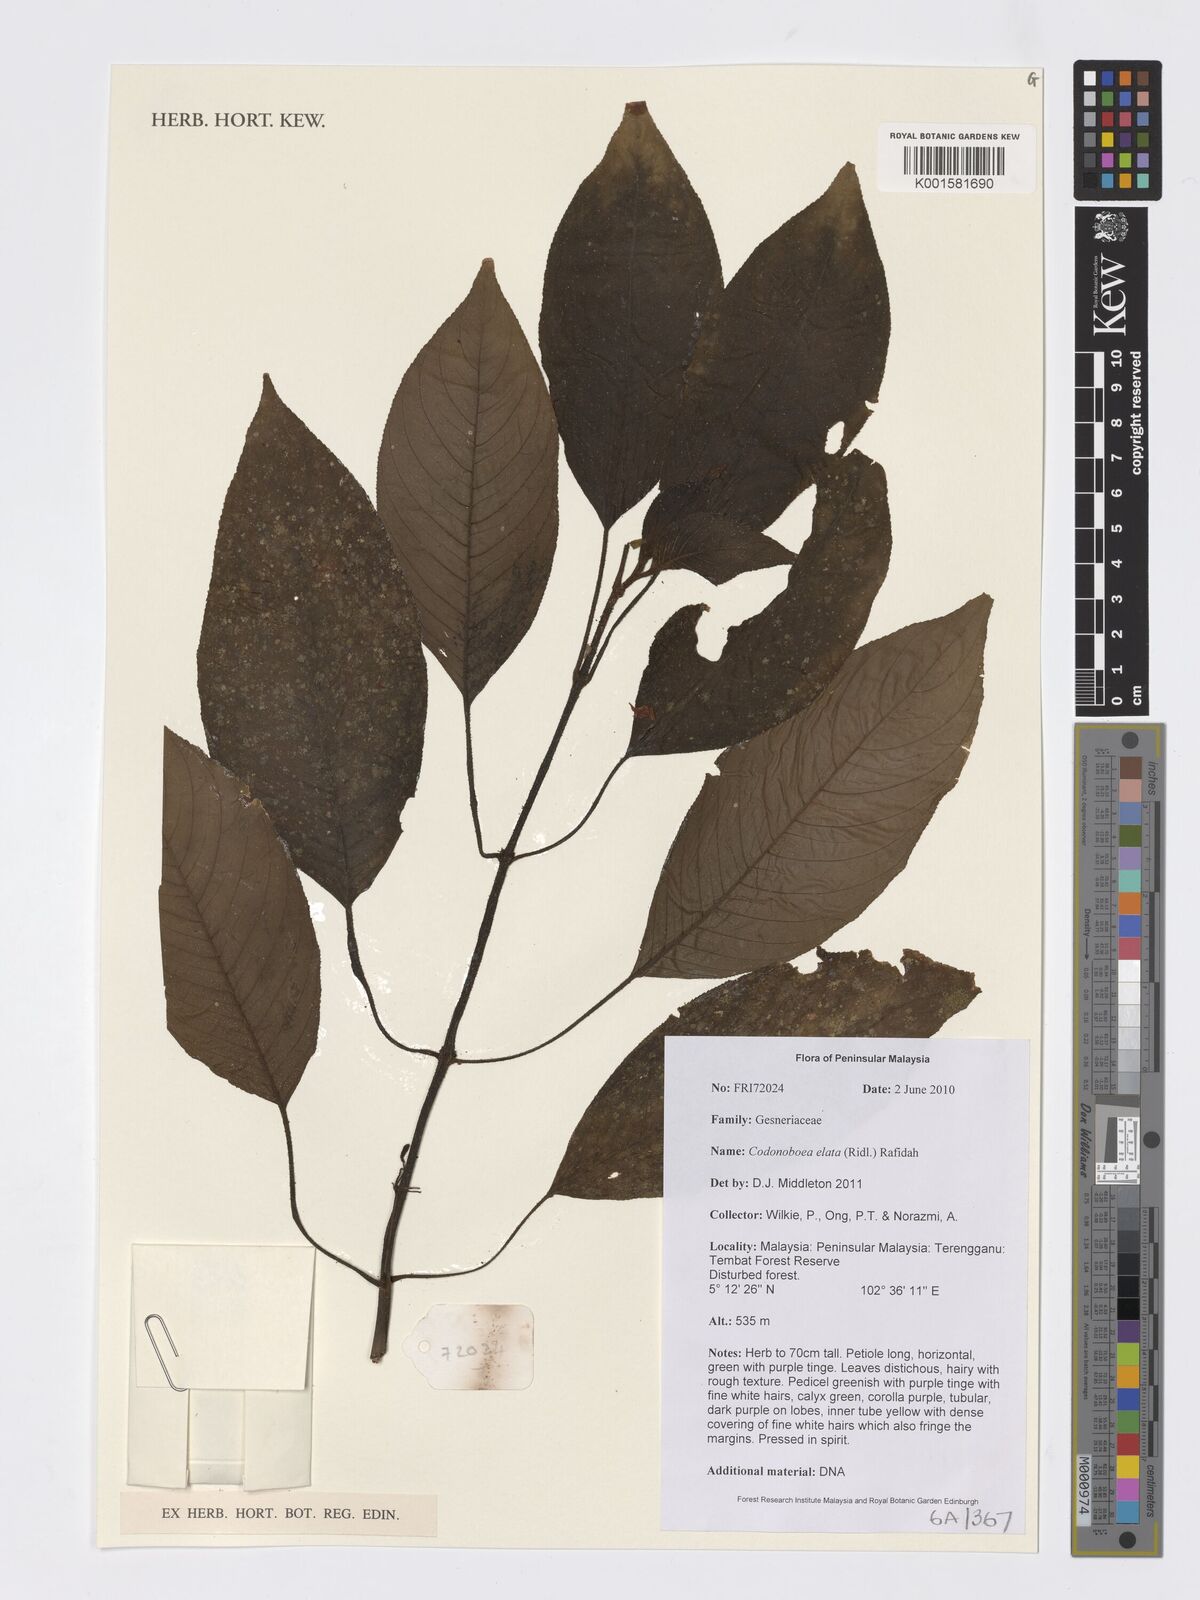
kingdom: Plantae
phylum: Tracheophyta
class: Magnoliopsida
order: Lamiales
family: Gesneriaceae
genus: Codonoboea
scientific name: Codonoboea elata
